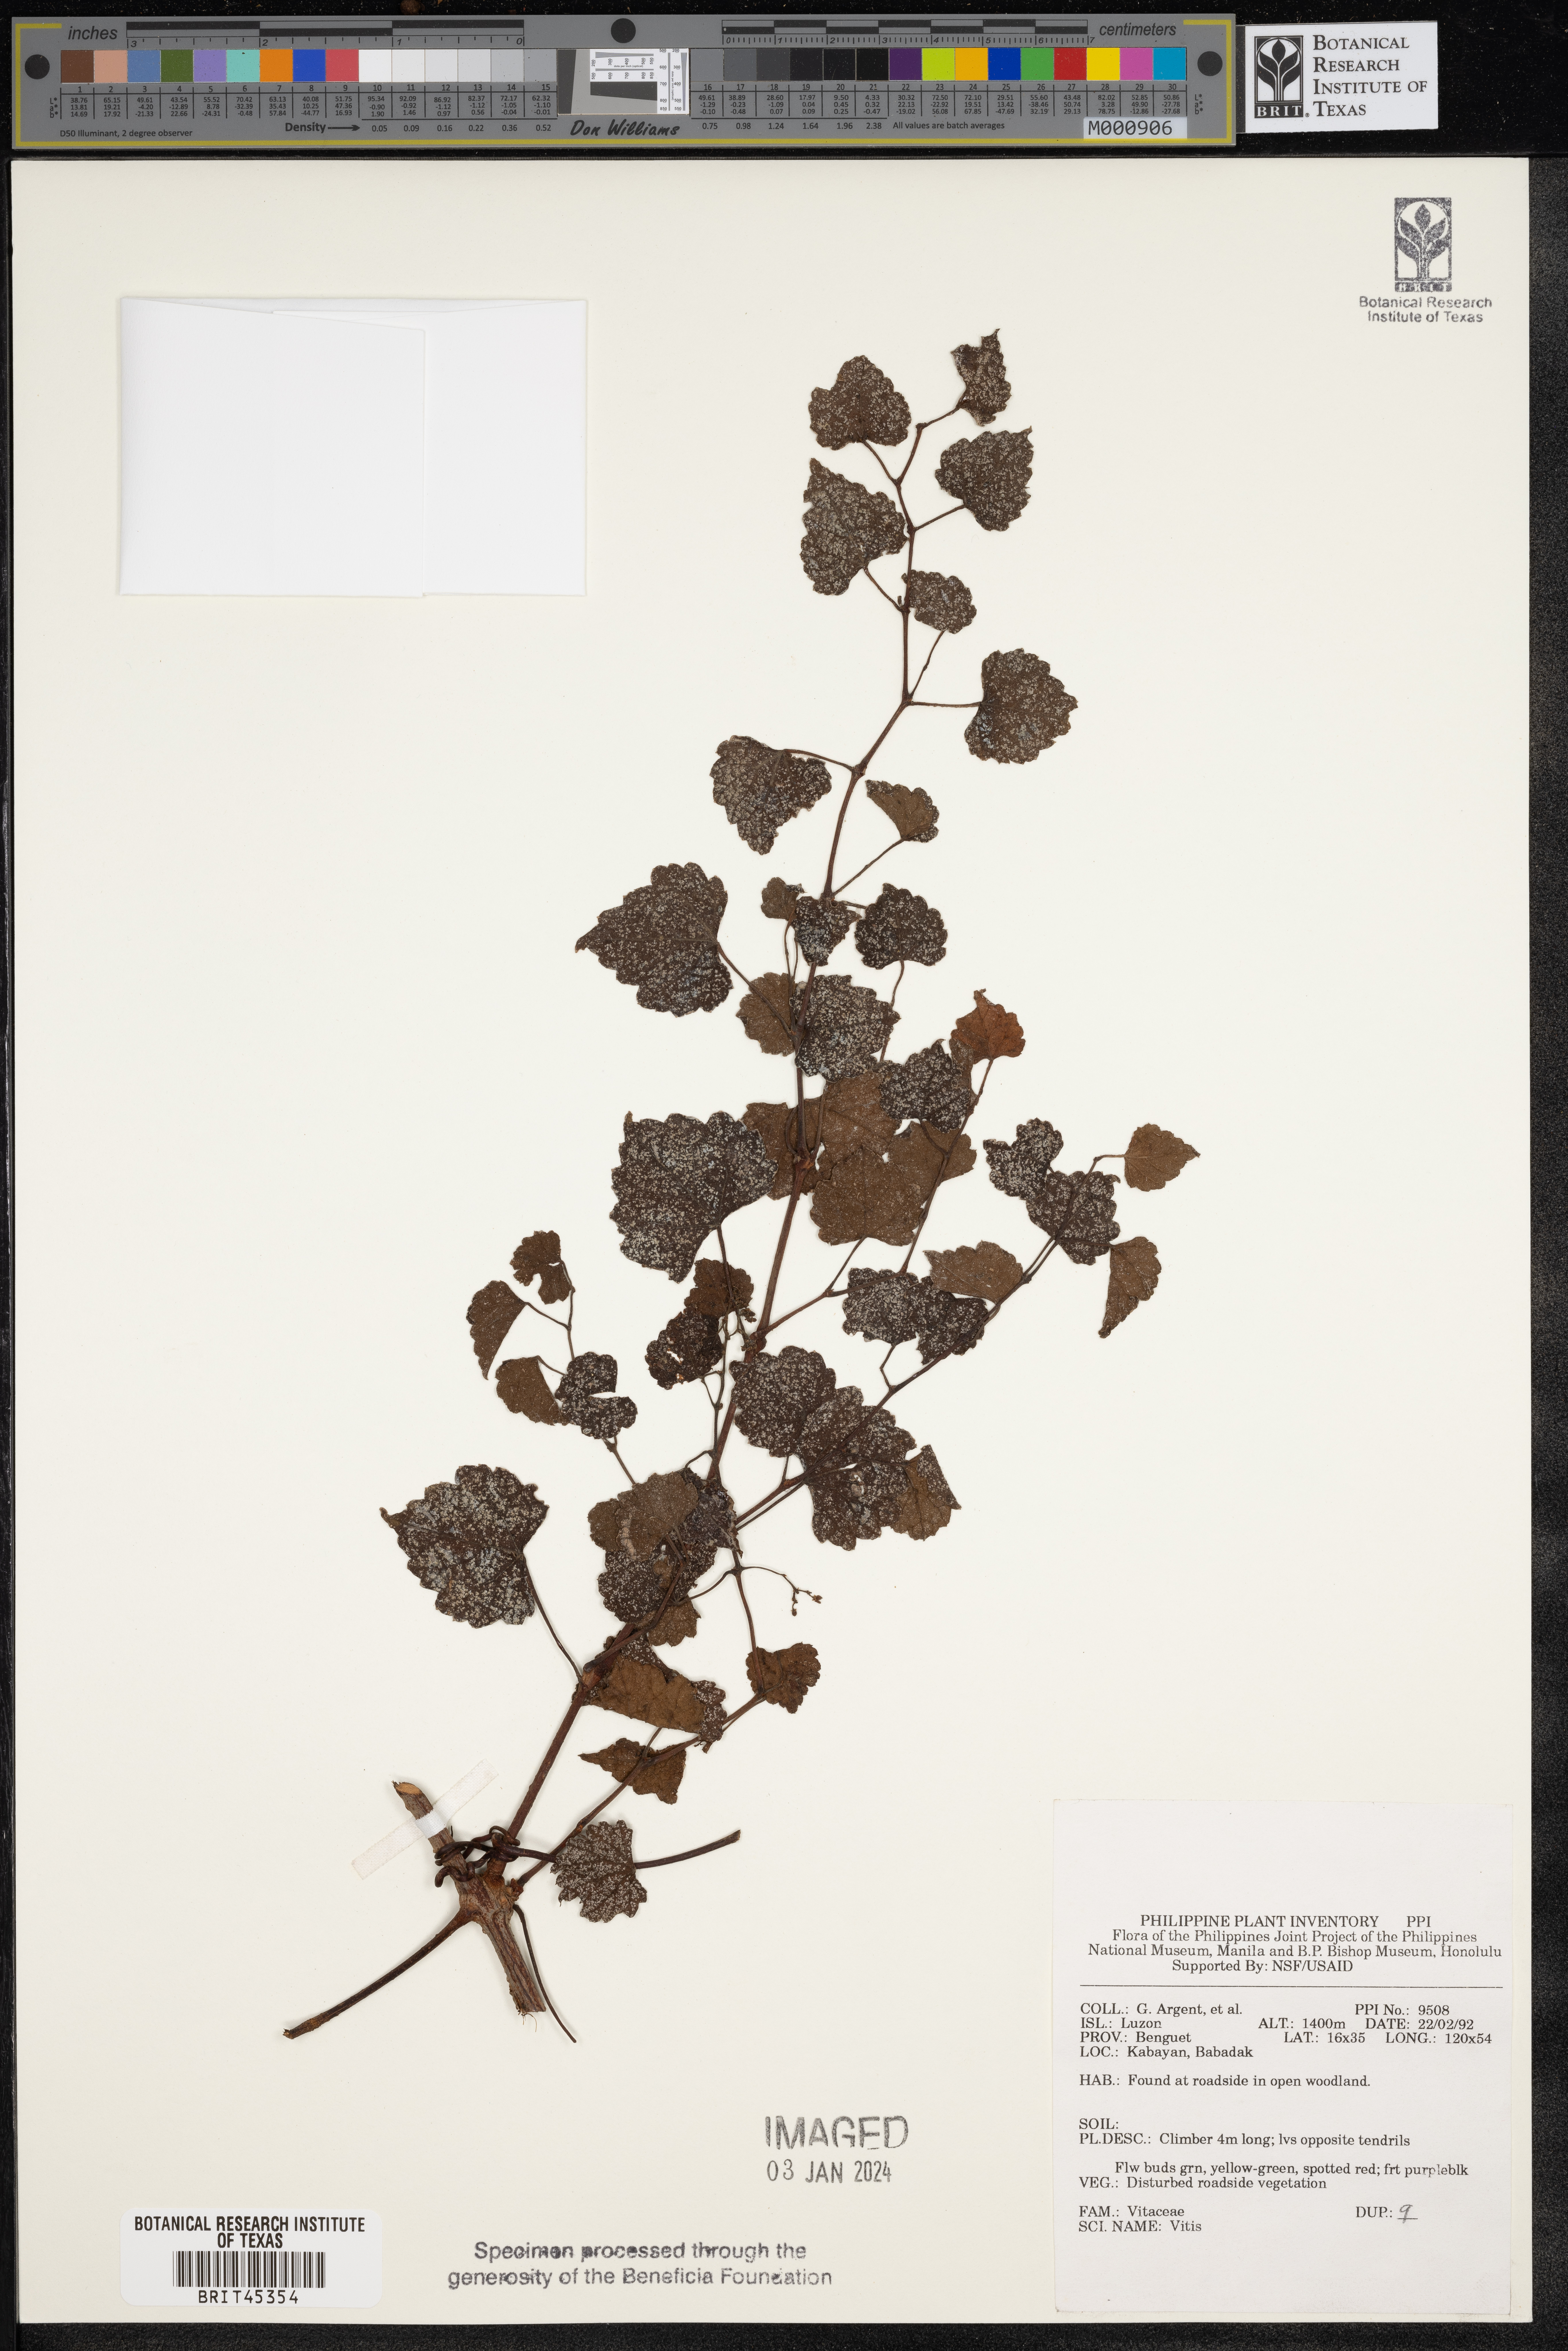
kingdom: Plantae
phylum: Tracheophyta
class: Magnoliopsida
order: Vitales
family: Vitaceae
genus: Vitis
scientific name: Vitis
